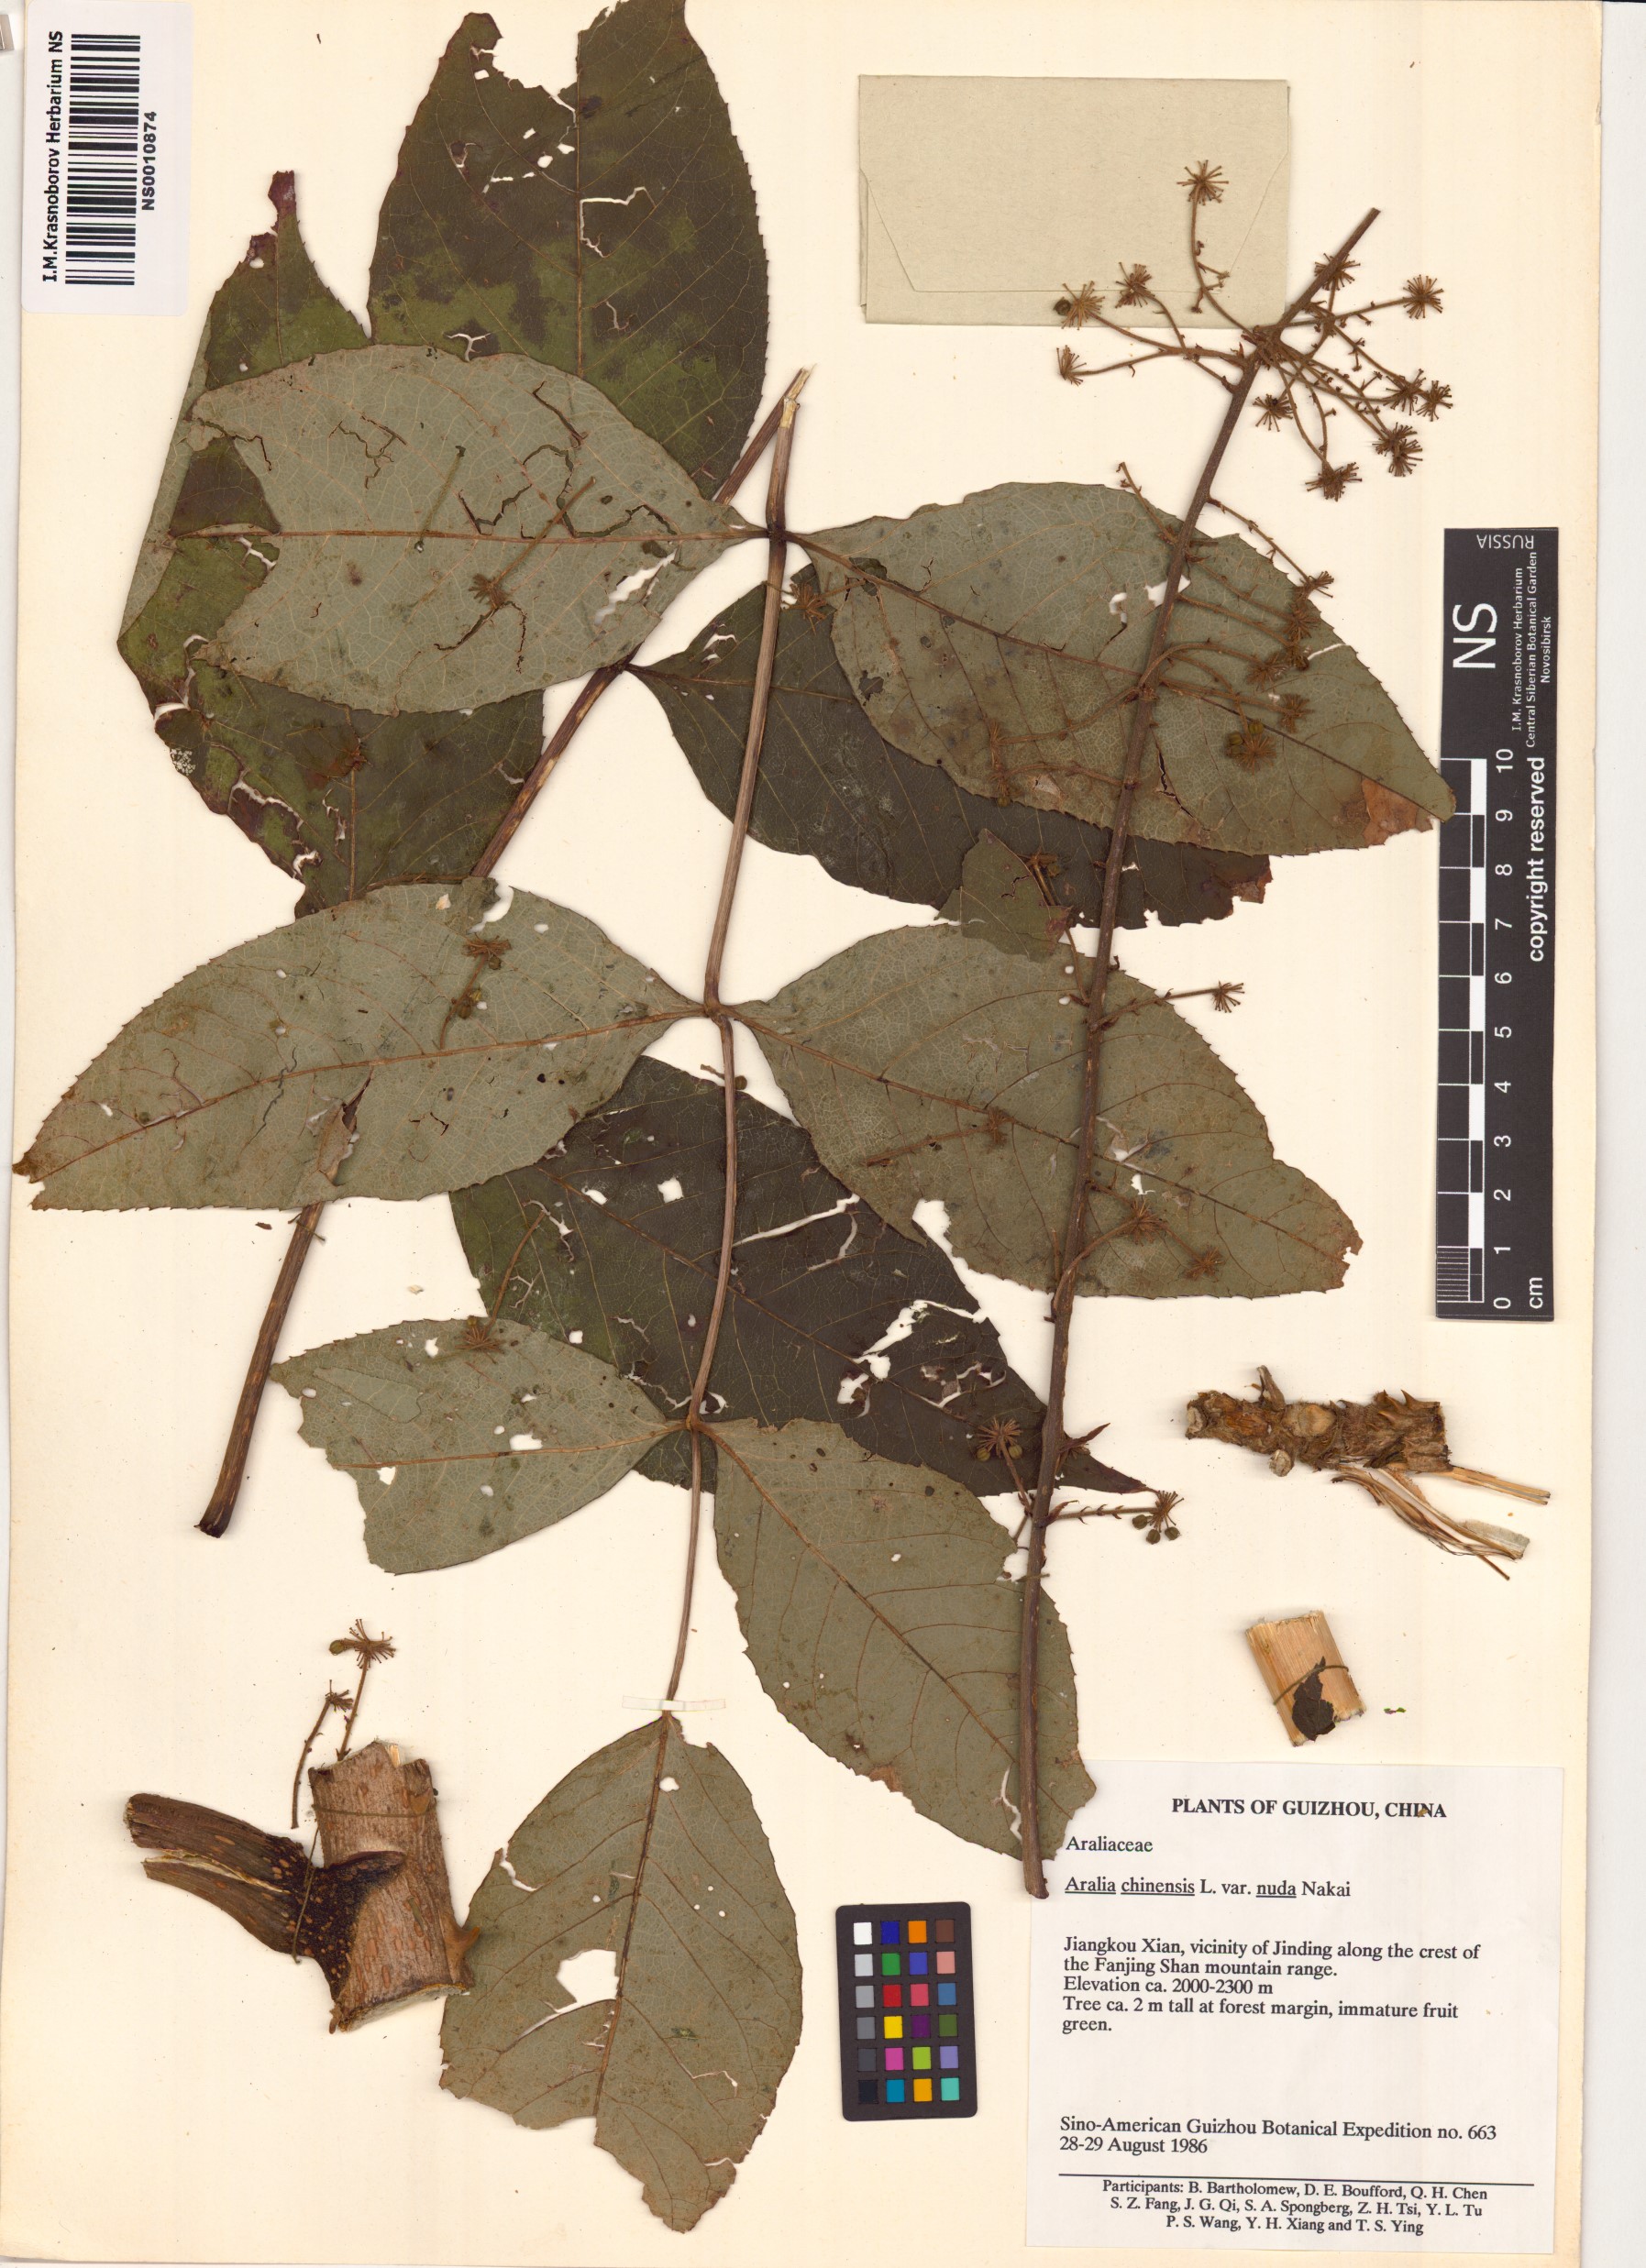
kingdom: Plantae
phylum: Tracheophyta
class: Magnoliopsida
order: Apiales
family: Araliaceae
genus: Aralia
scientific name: Aralia elata
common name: Japanese angelica-tree
